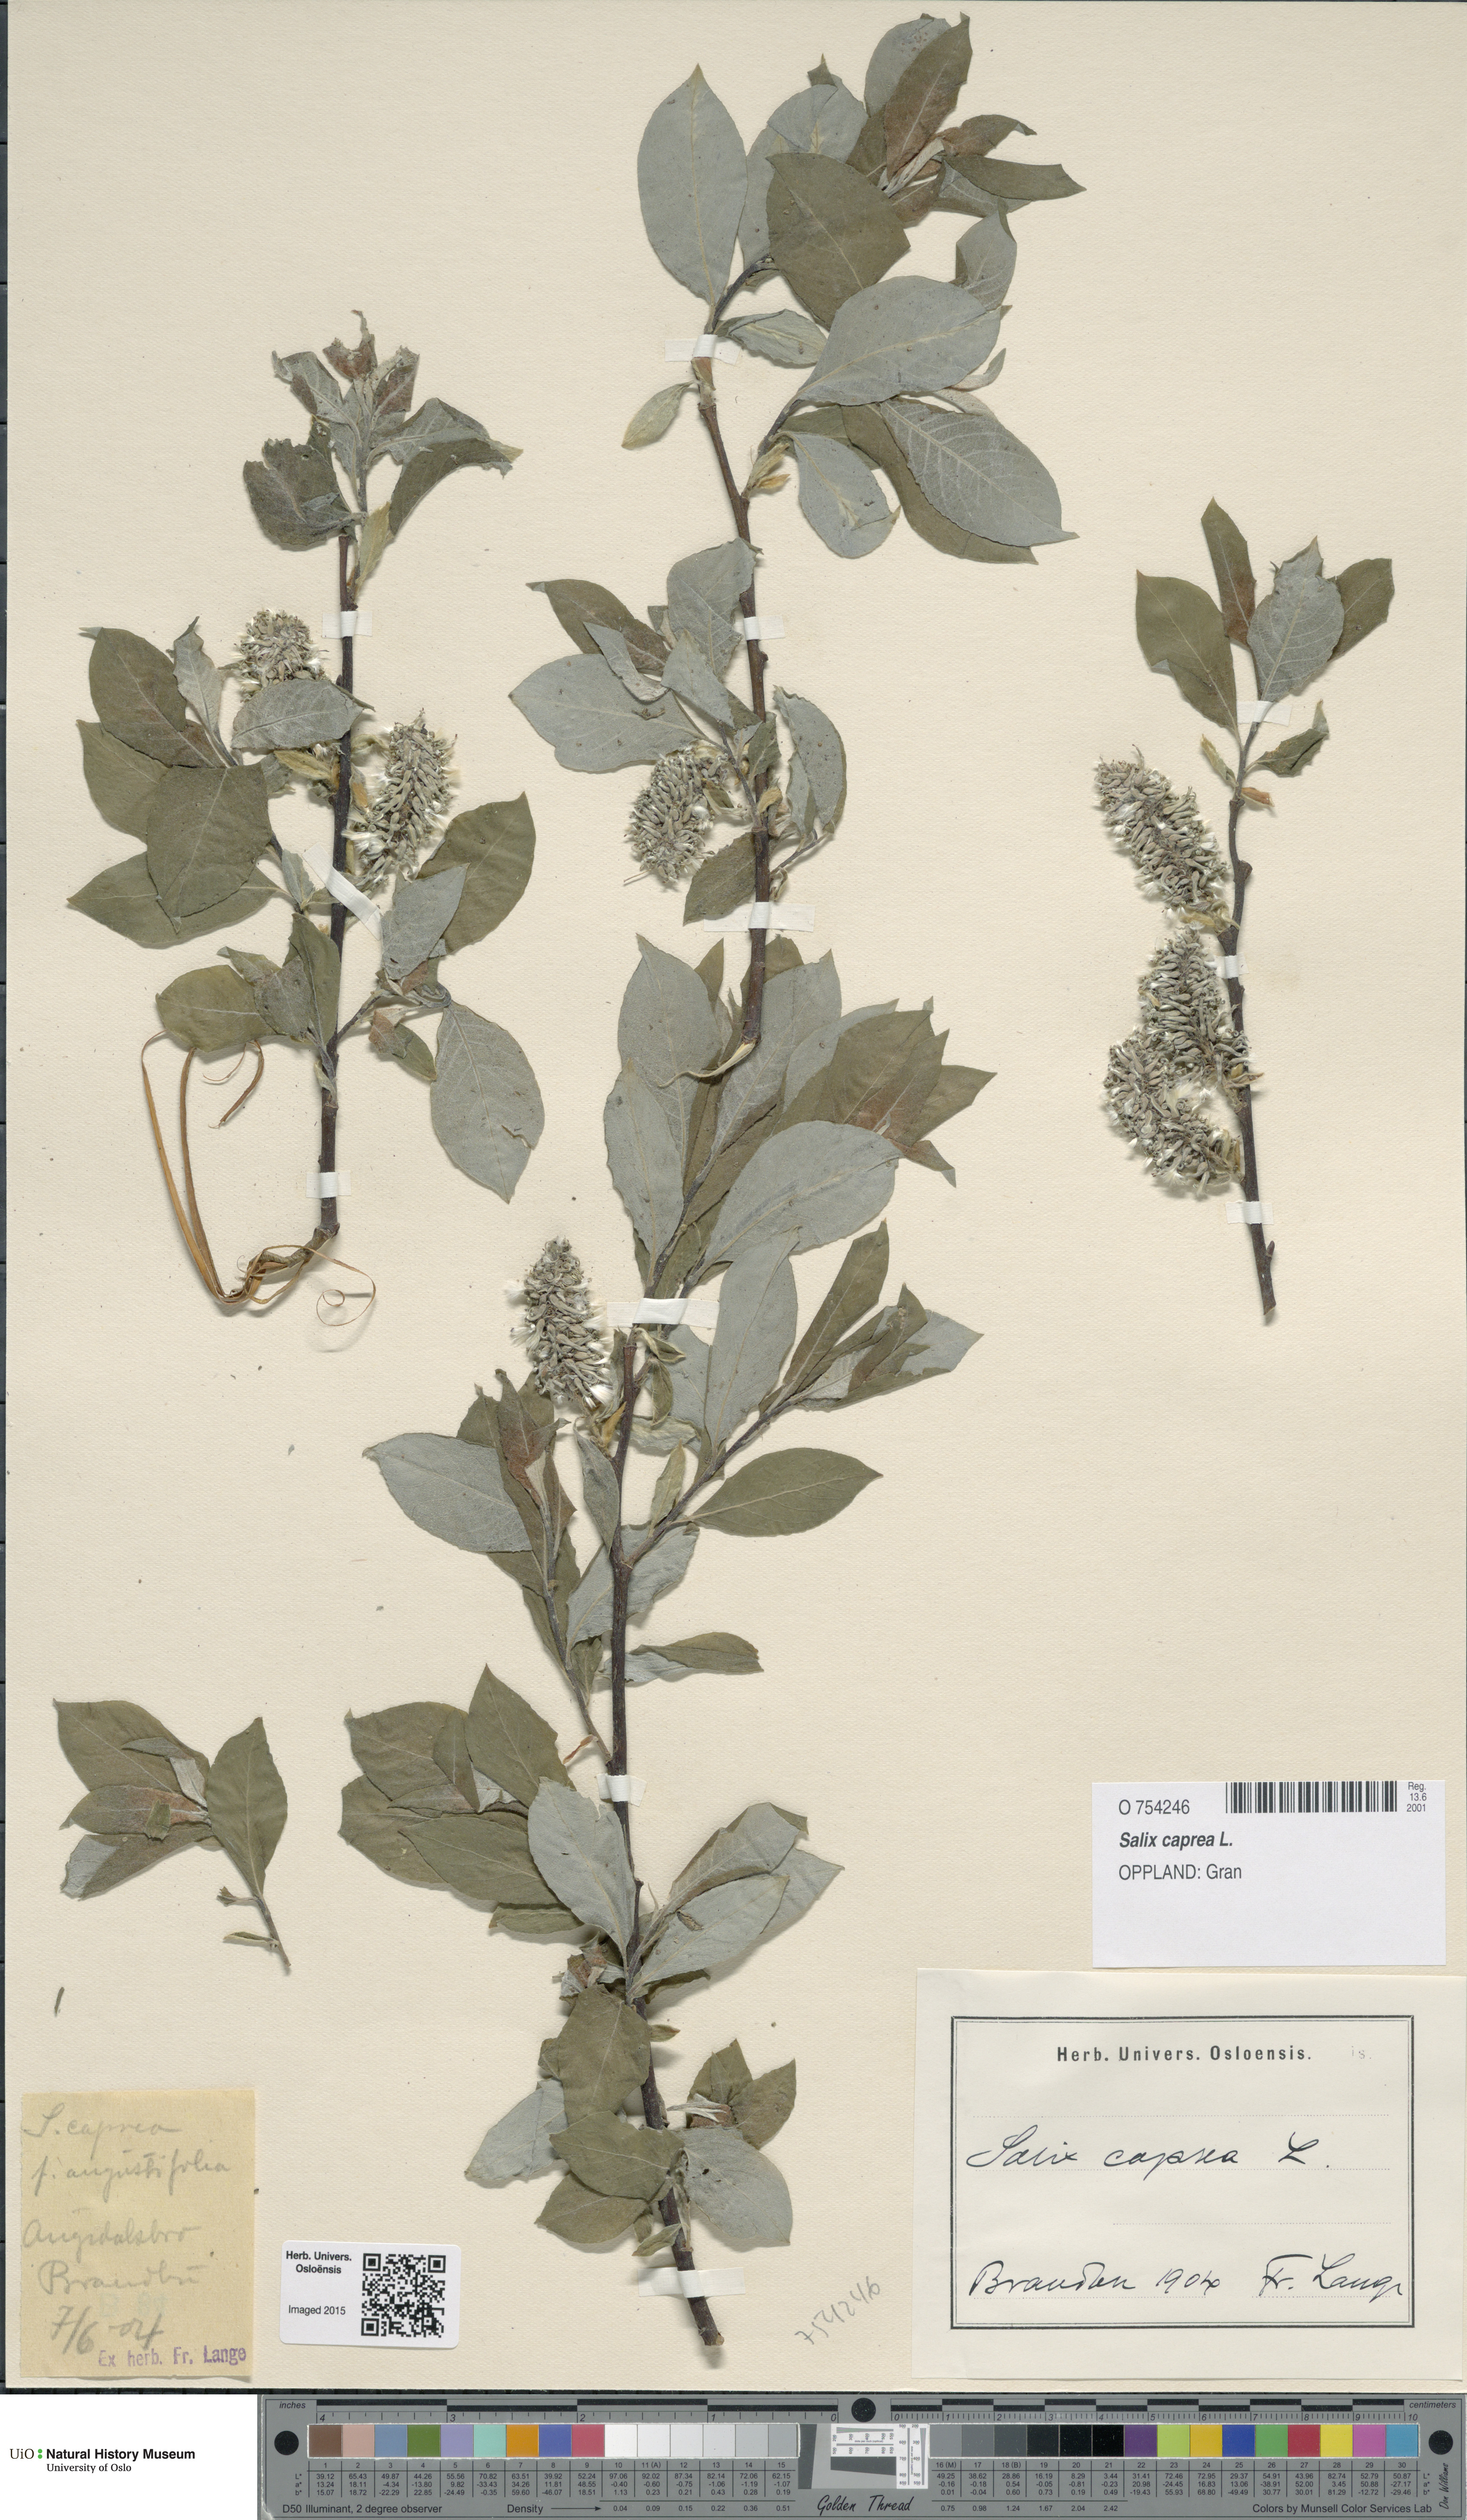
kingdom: Plantae
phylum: Tracheophyta
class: Magnoliopsida
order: Malpighiales
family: Salicaceae
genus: Salix
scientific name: Salix caprea
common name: Goat willow
